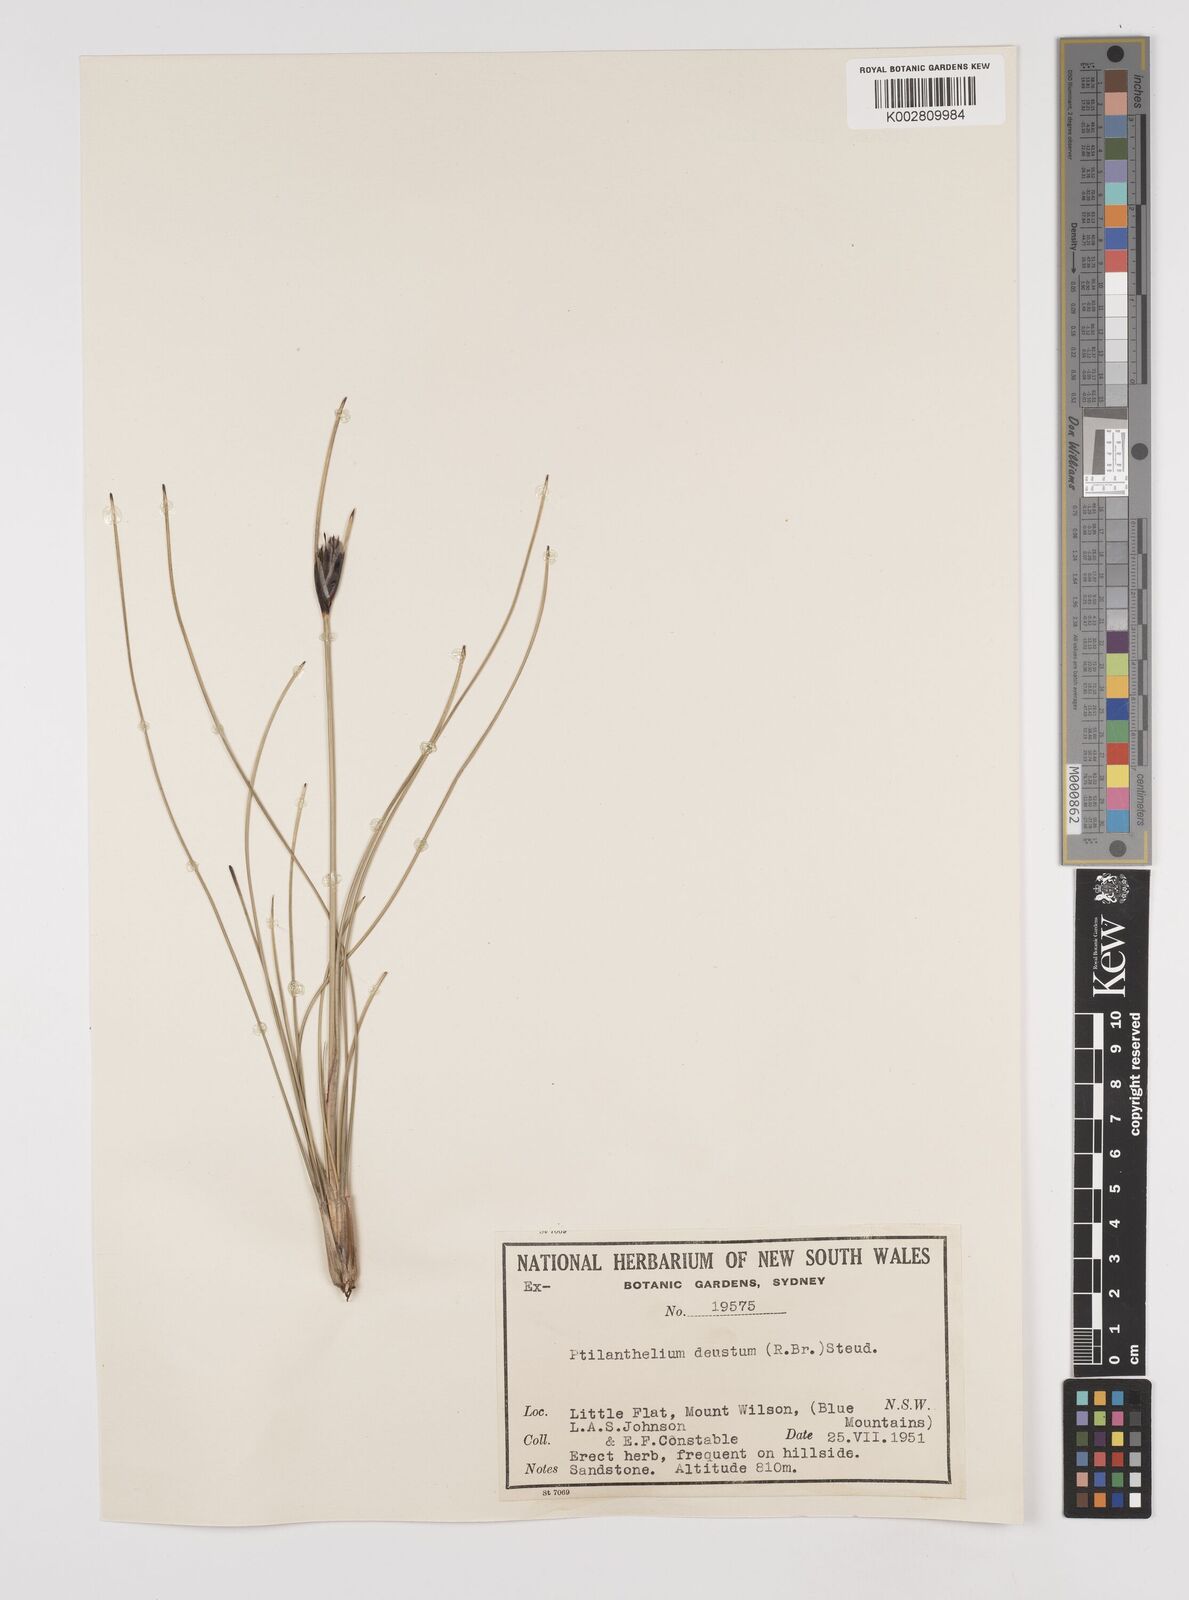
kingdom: Plantae
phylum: Tracheophyta
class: Liliopsida
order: Poales
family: Cyperaceae
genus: Ptilothrix
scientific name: Ptilothrix deusta
